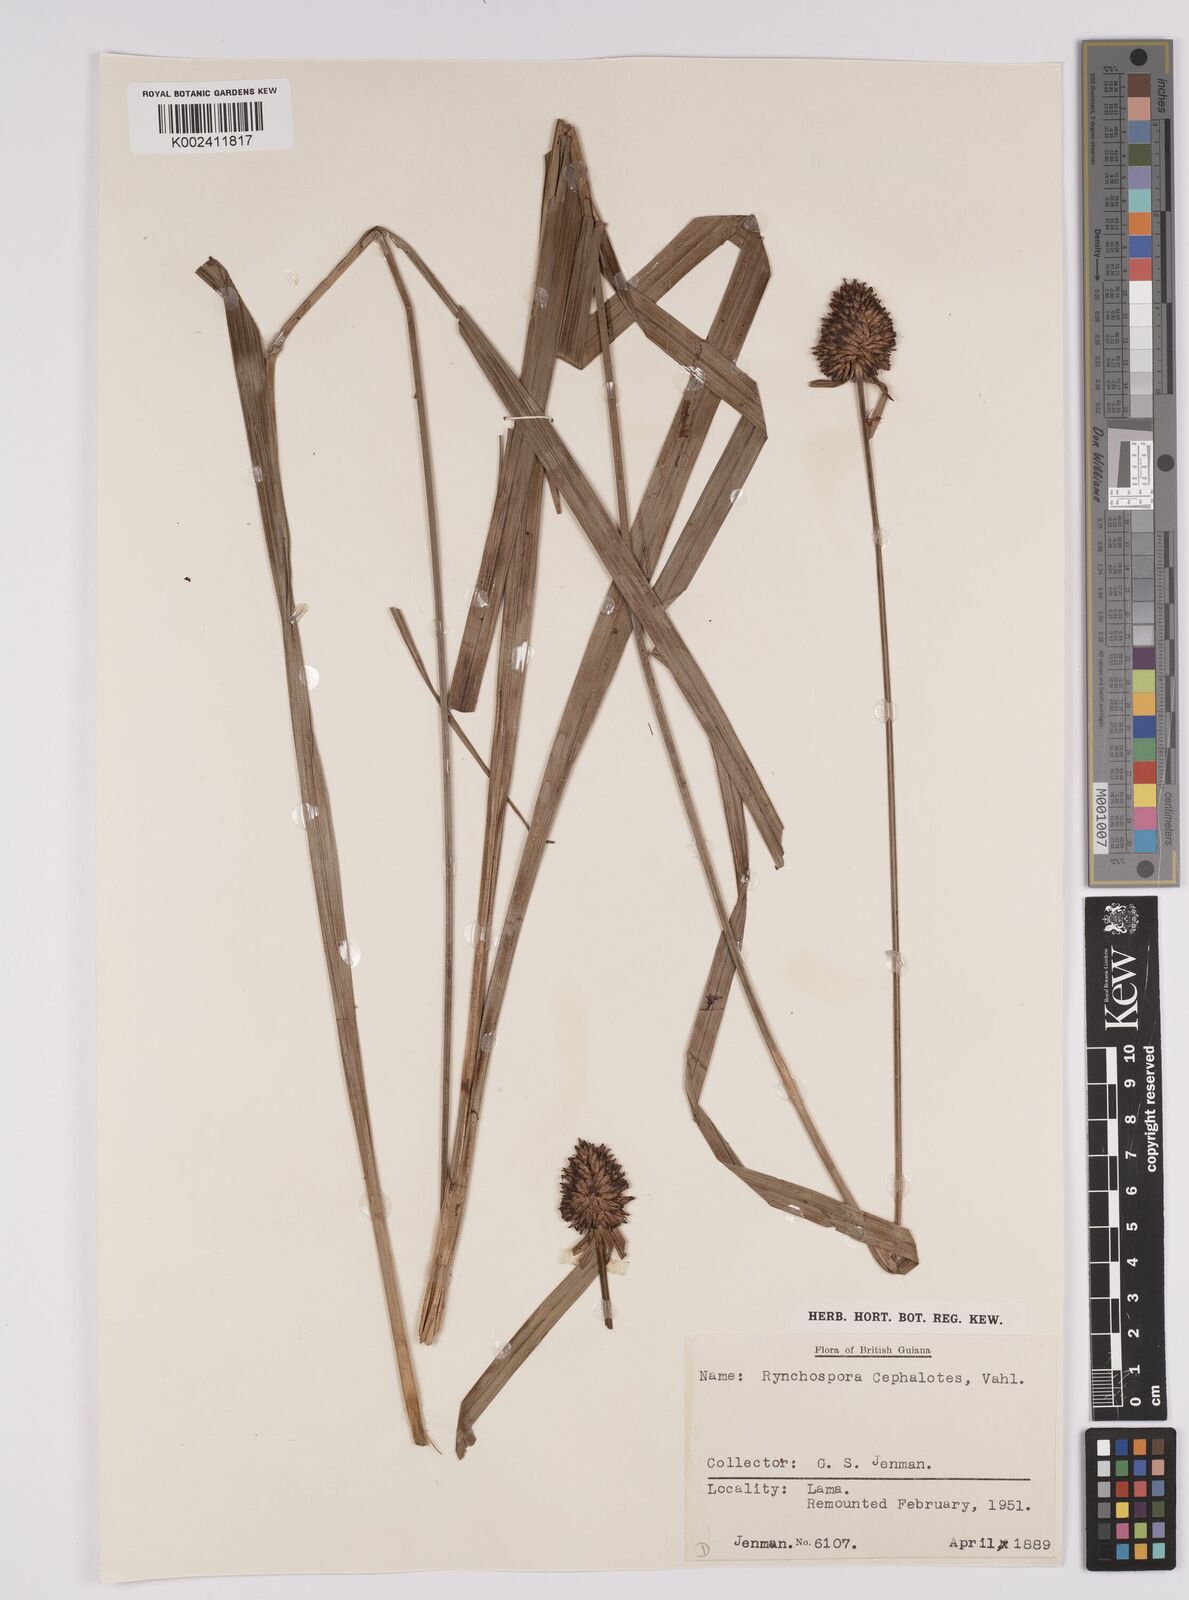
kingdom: Plantae
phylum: Tracheophyta
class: Liliopsida
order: Poales
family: Cyperaceae
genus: Rhynchospora
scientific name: Rhynchospora cephalotes
